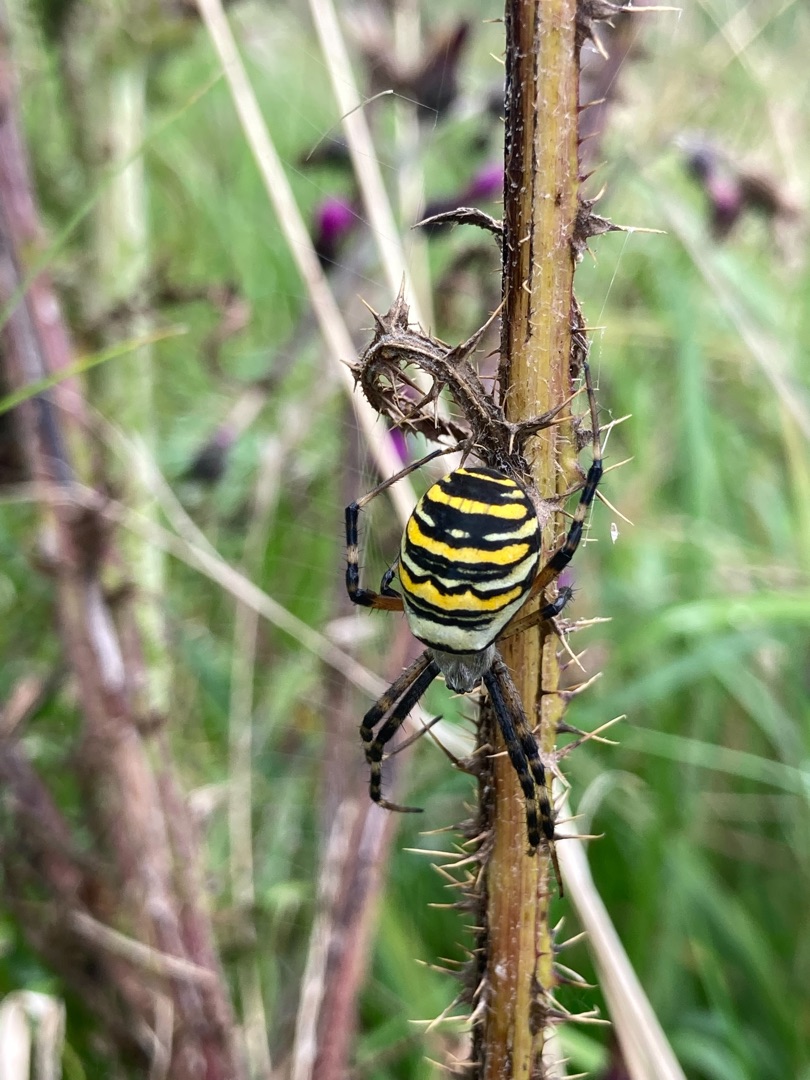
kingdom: Animalia
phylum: Arthropoda
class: Arachnida
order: Araneae
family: Araneidae
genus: Argiope
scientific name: Argiope bruennichi
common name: Hvepseedderkop
